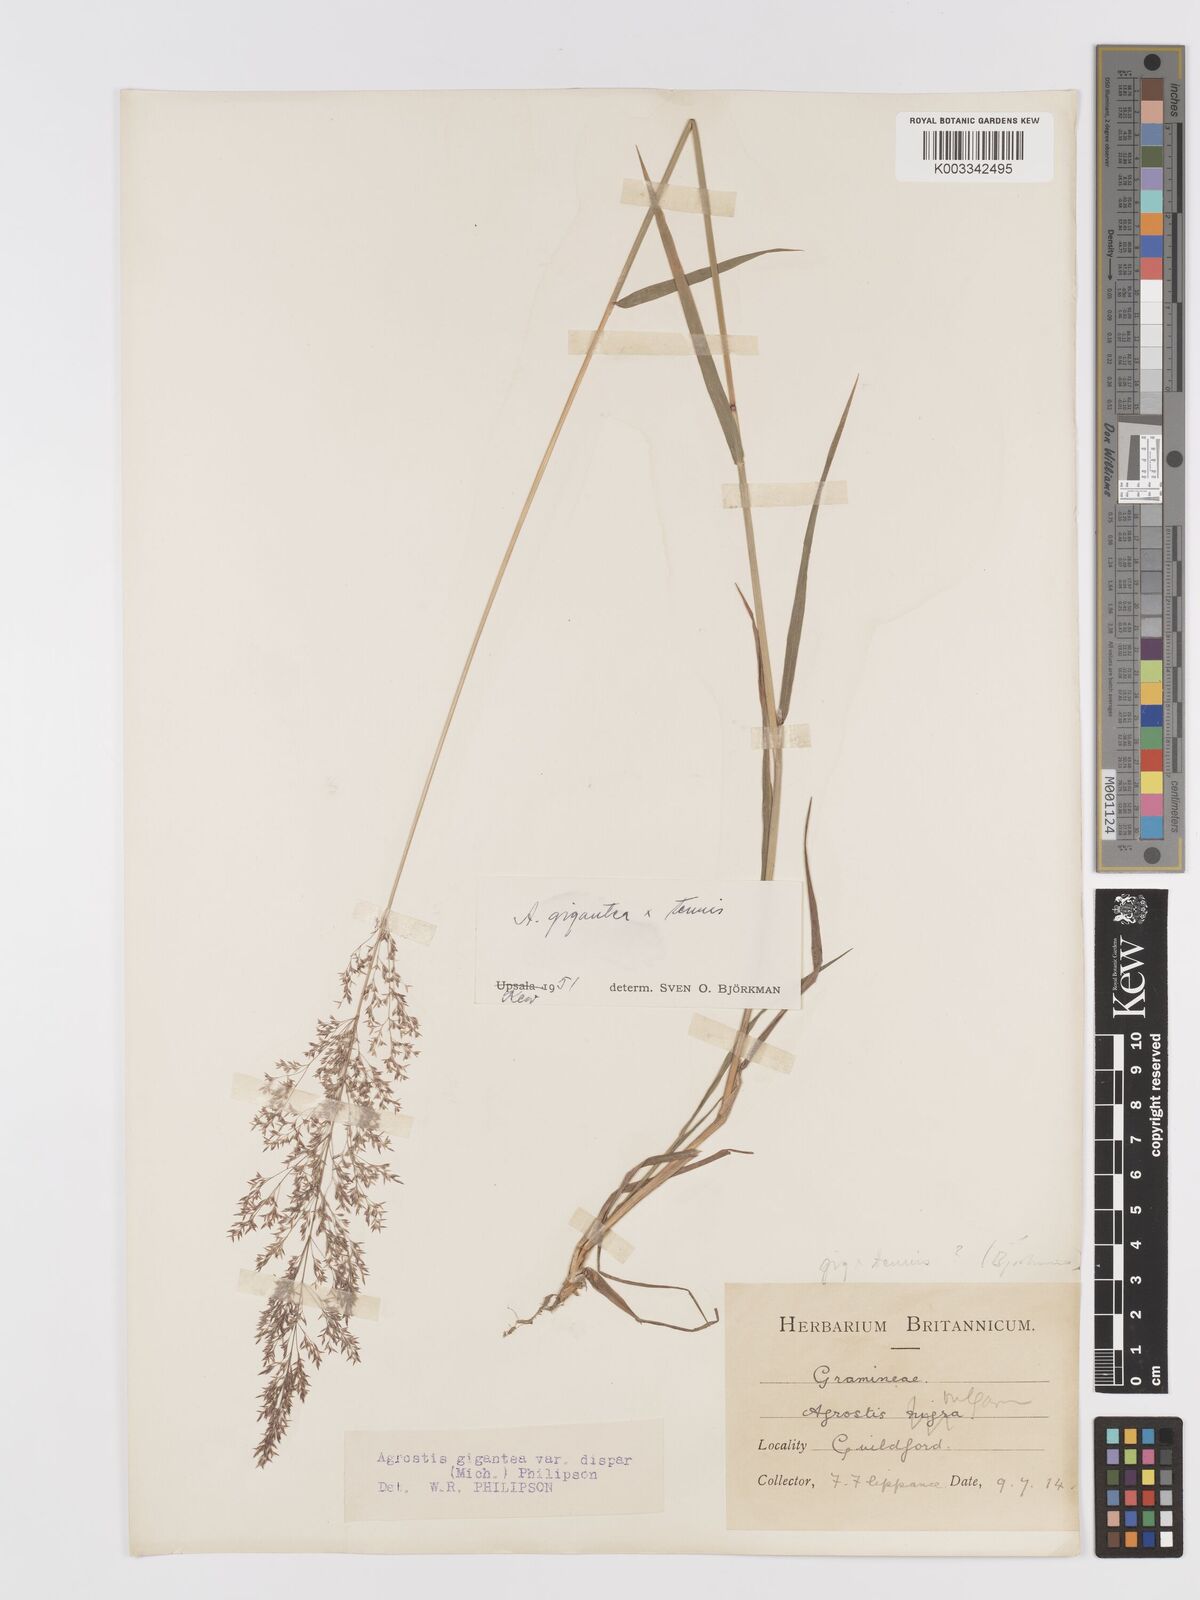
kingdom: Plantae
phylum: Tracheophyta
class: Liliopsida
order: Poales
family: Poaceae
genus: Agrostis
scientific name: Agrostis capillaris
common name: Colonial bentgrass
